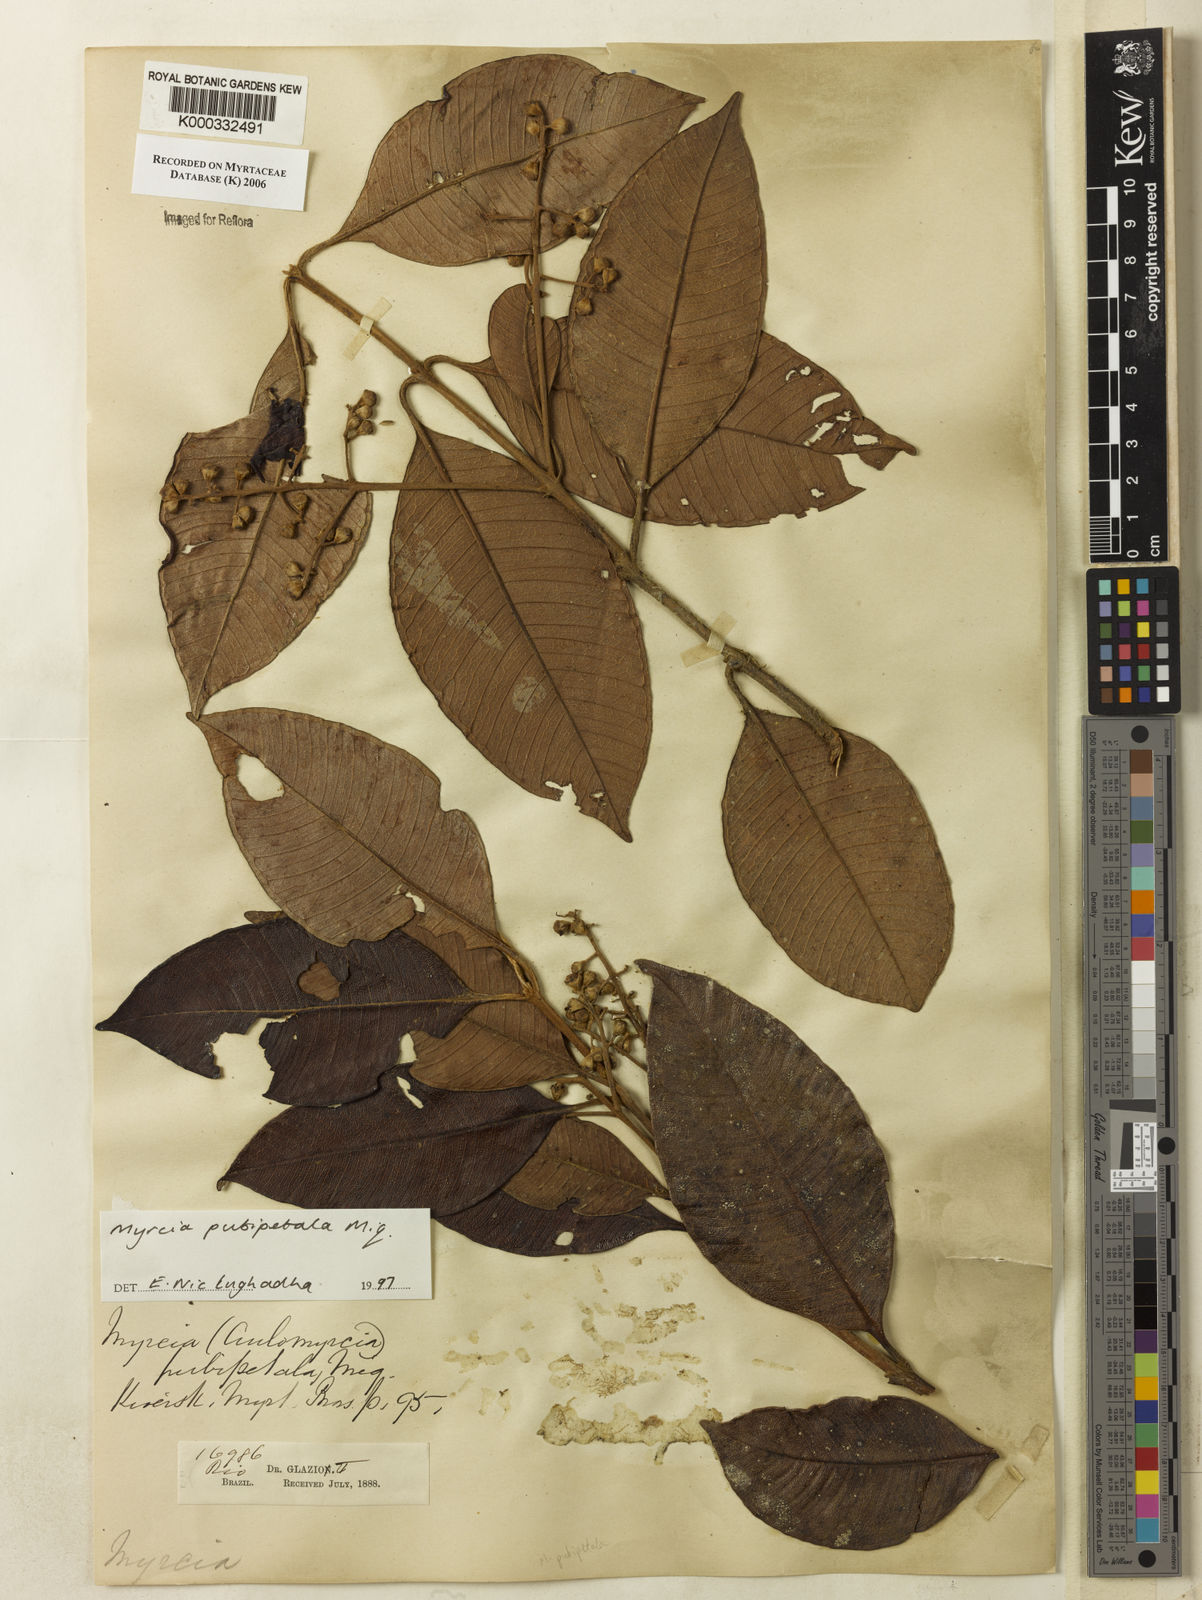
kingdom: Plantae
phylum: Tracheophyta
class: Magnoliopsida
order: Myrtales
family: Myrtaceae
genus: Myrcia
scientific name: Myrcia pubipetala
